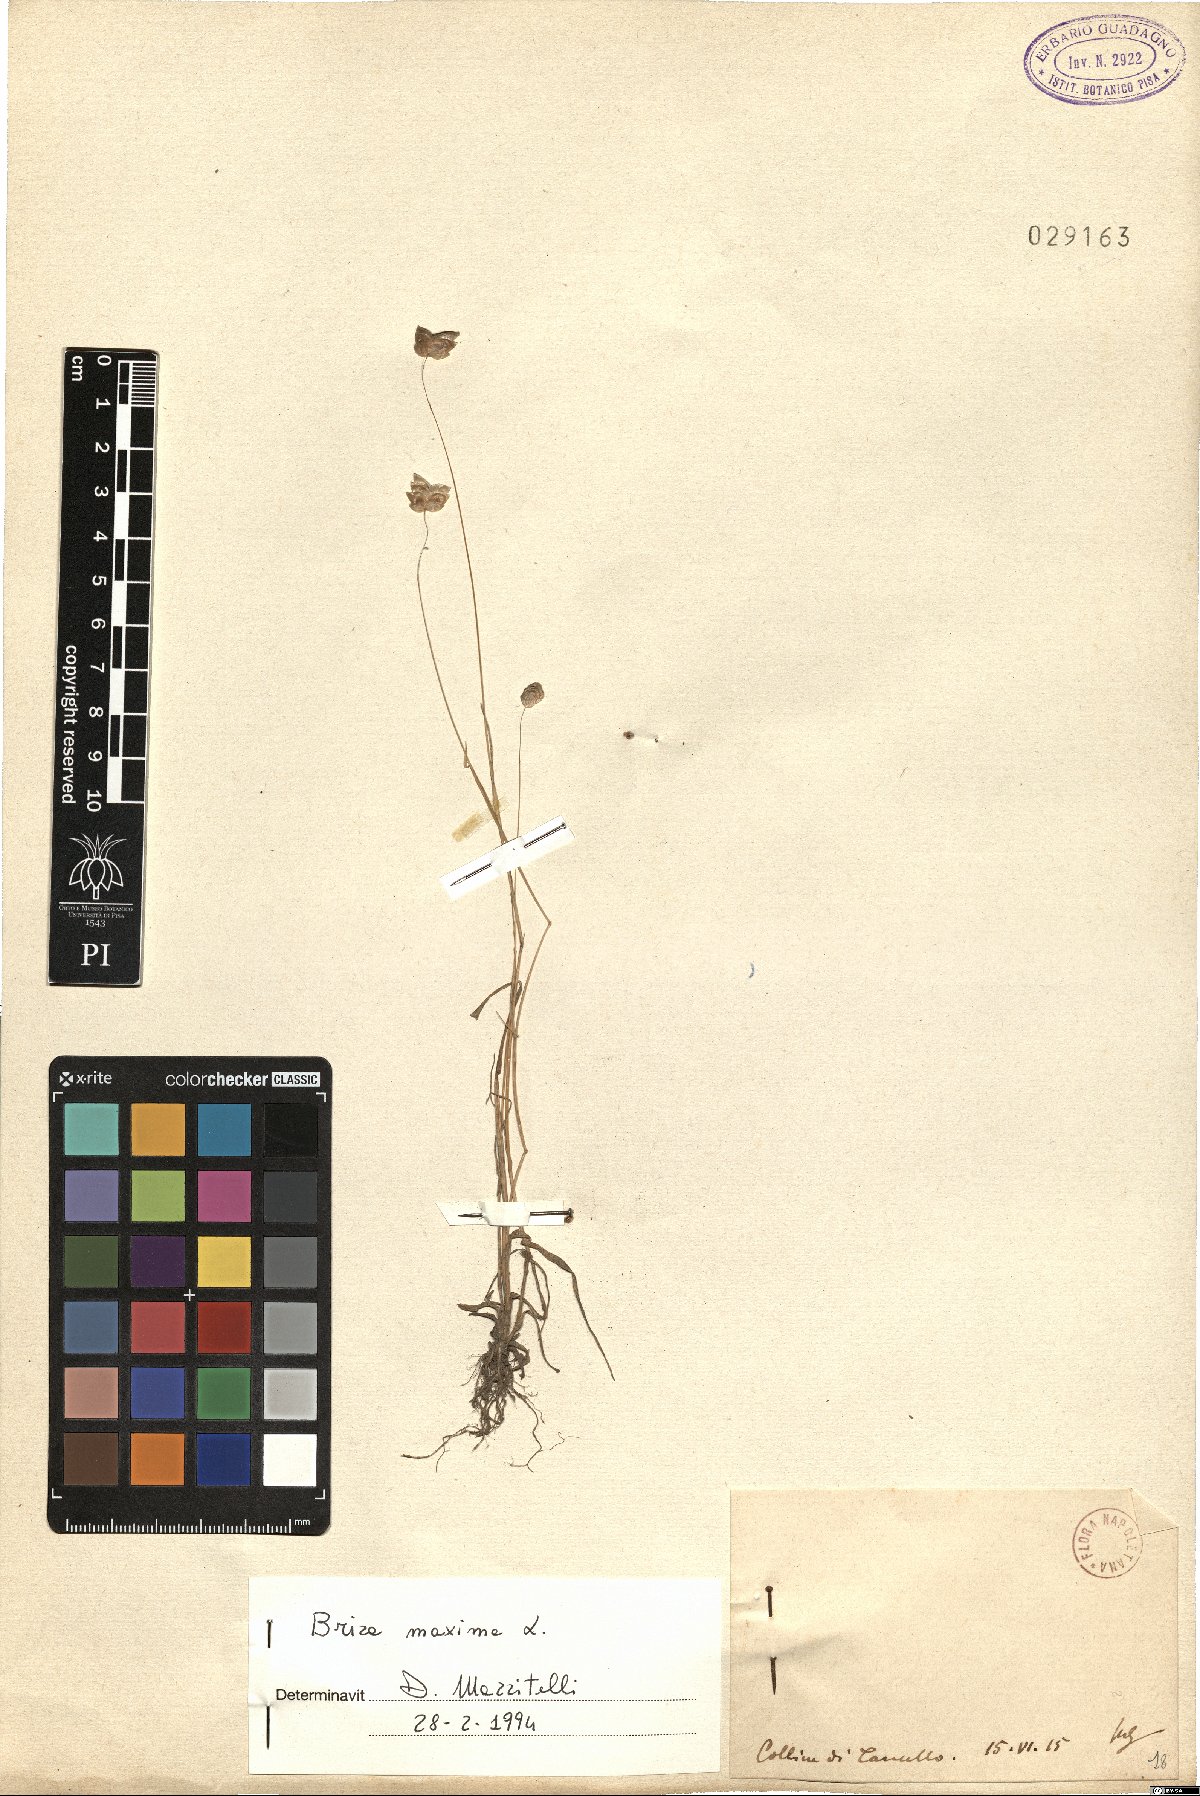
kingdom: Plantae
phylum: Tracheophyta
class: Liliopsida
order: Poales
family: Poaceae
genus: Briza
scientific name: Briza maxima
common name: Big quakinggrass
